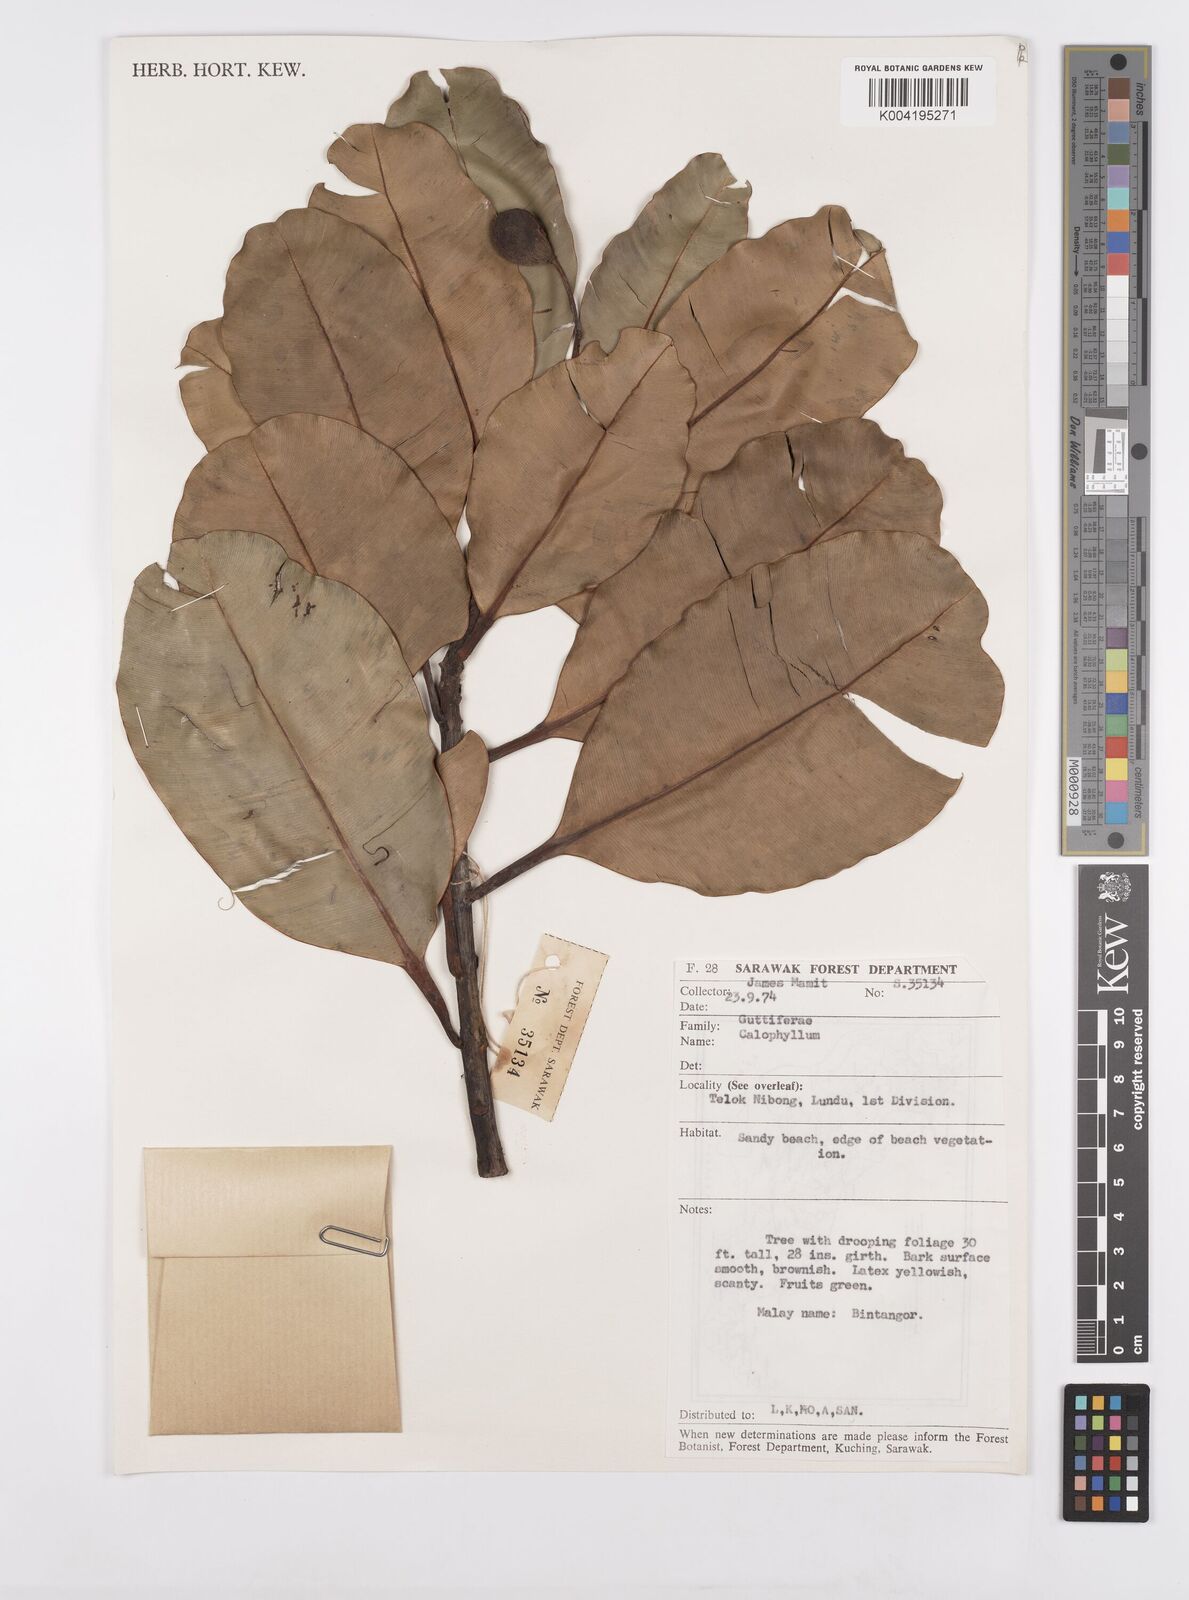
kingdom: Plantae
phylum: Tracheophyta
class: Magnoliopsida
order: Malpighiales
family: Calophyllaceae
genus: Calophyllum
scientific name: Calophyllum inophyllum
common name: Alexandrian laurel
